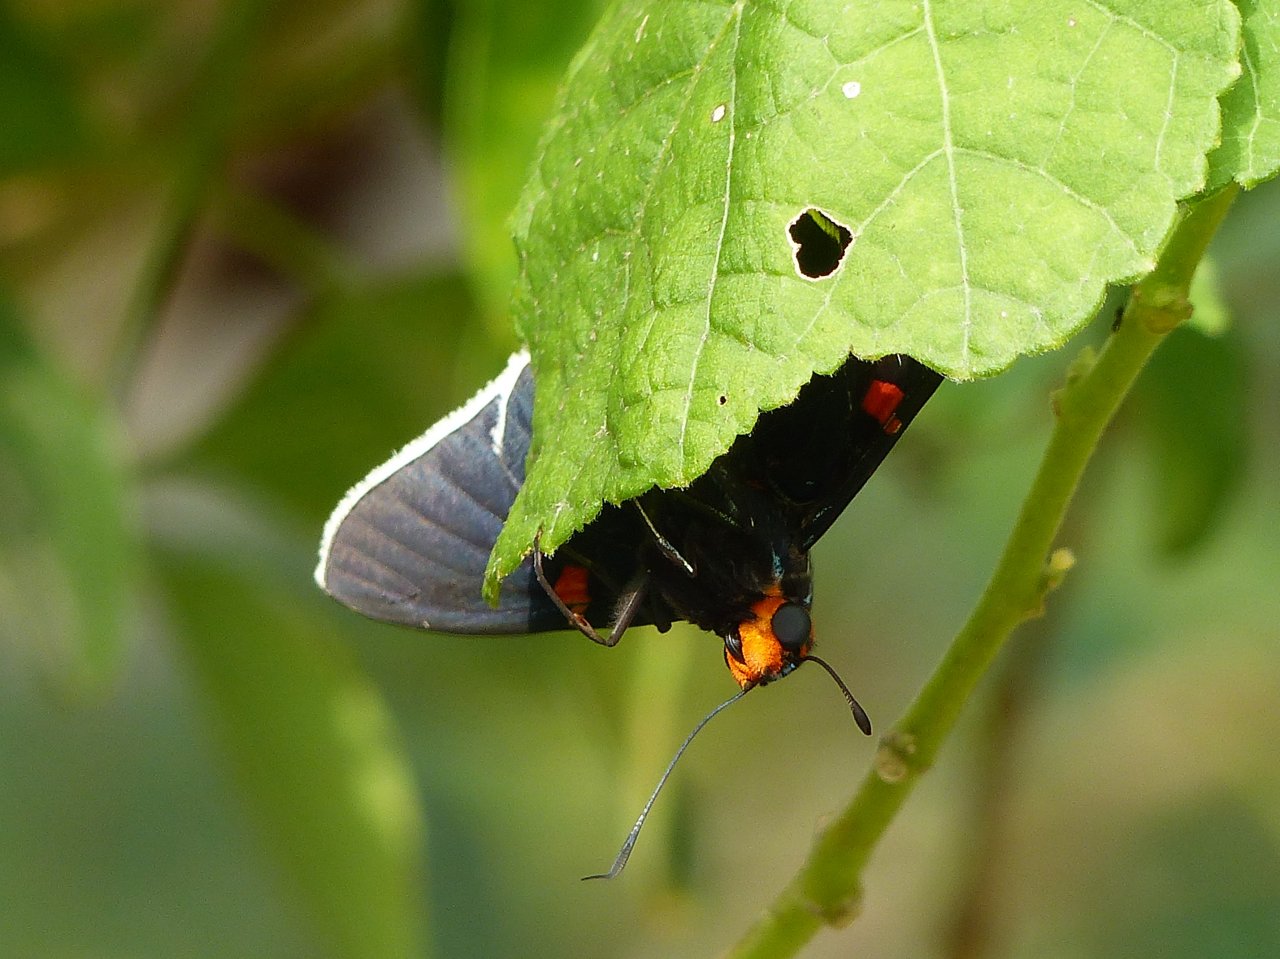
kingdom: Animalia
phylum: Arthropoda
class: Insecta
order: Lepidoptera
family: Hesperiidae
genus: Phocides
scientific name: Phocides polybius
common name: Guava Skipper
